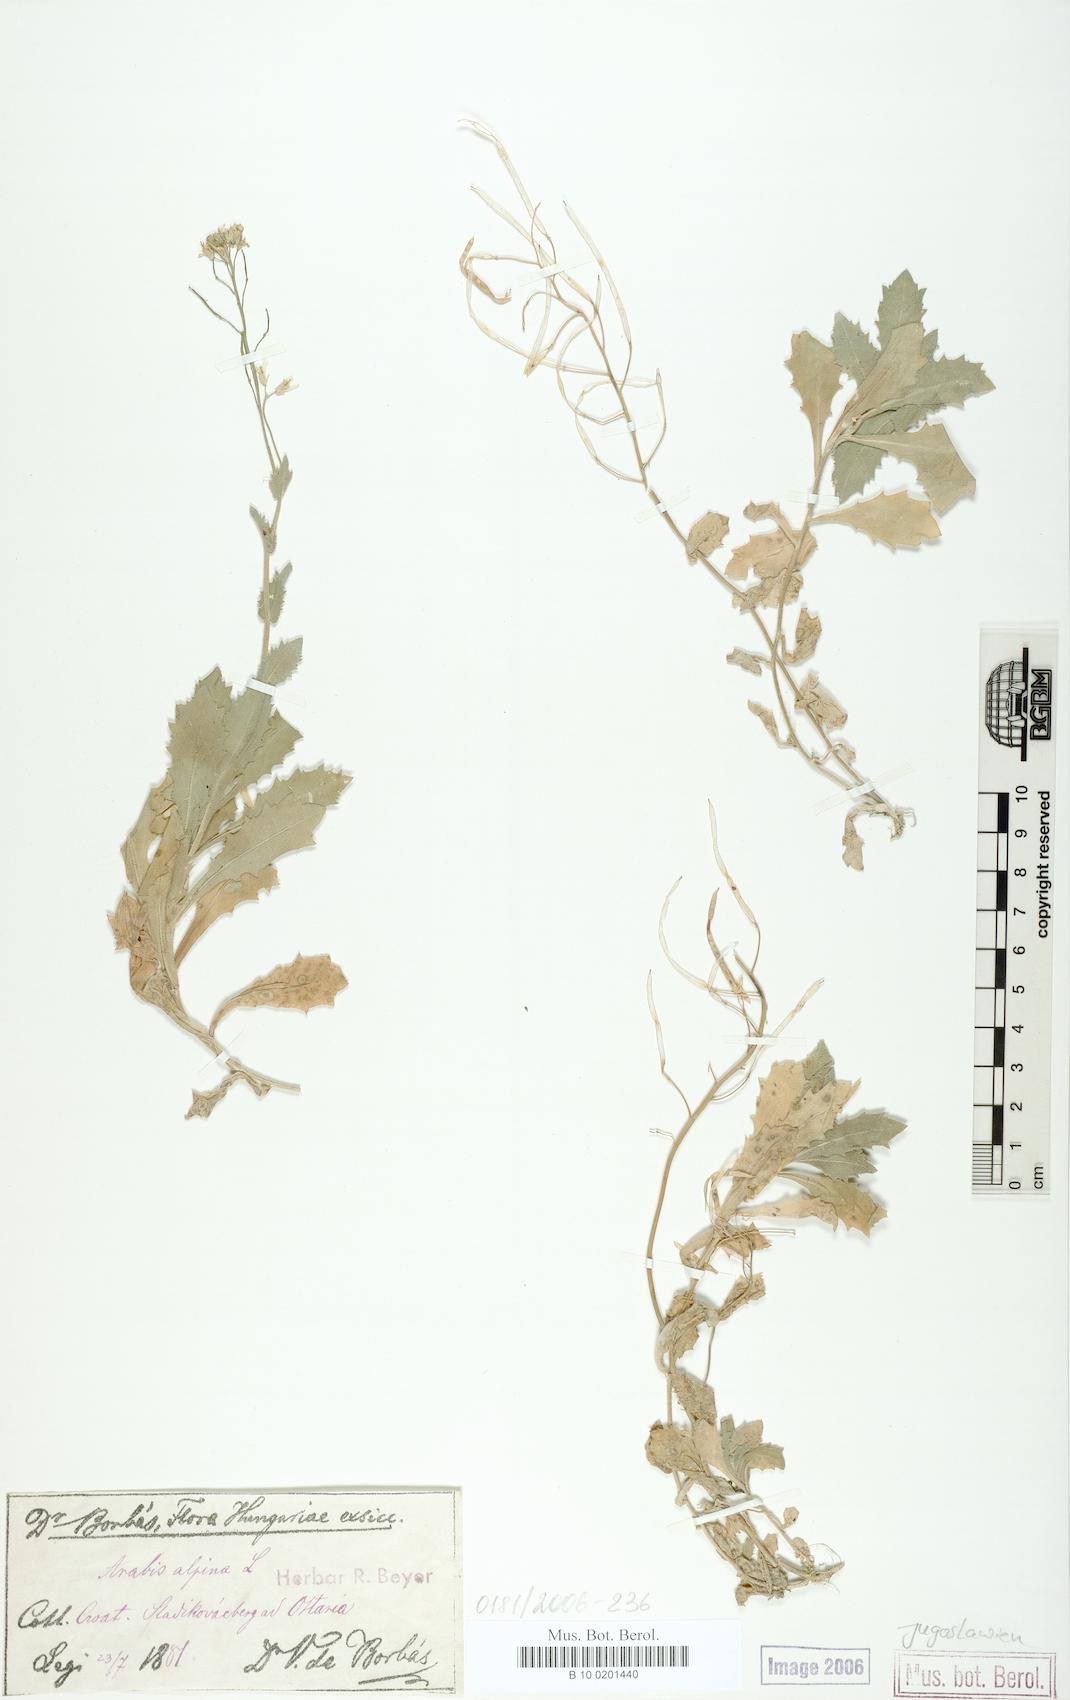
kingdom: Plantae
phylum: Tracheophyta
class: Magnoliopsida
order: Brassicales
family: Brassicaceae
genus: Arabis
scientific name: Arabis alpina
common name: Alpine rock-cress
